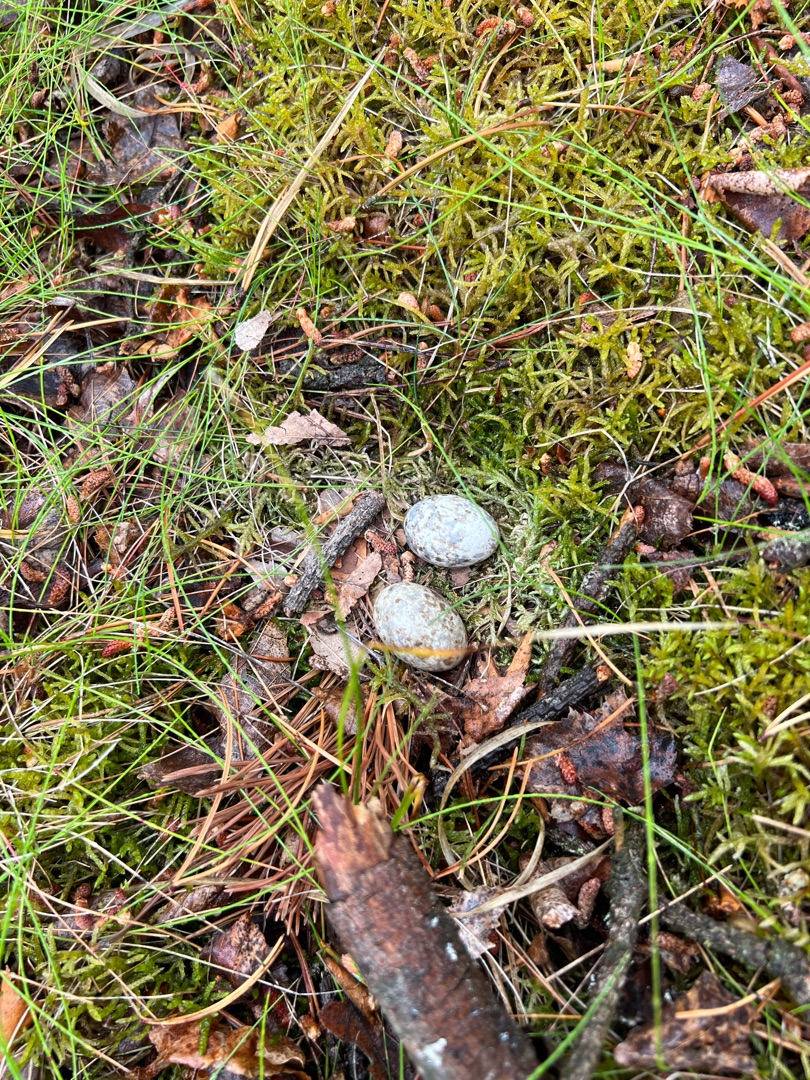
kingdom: Animalia
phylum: Chordata
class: Aves
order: Caprimulgiformes
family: Caprimulgidae
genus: Caprimulgus
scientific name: Caprimulgus europaeus
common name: Natravn
